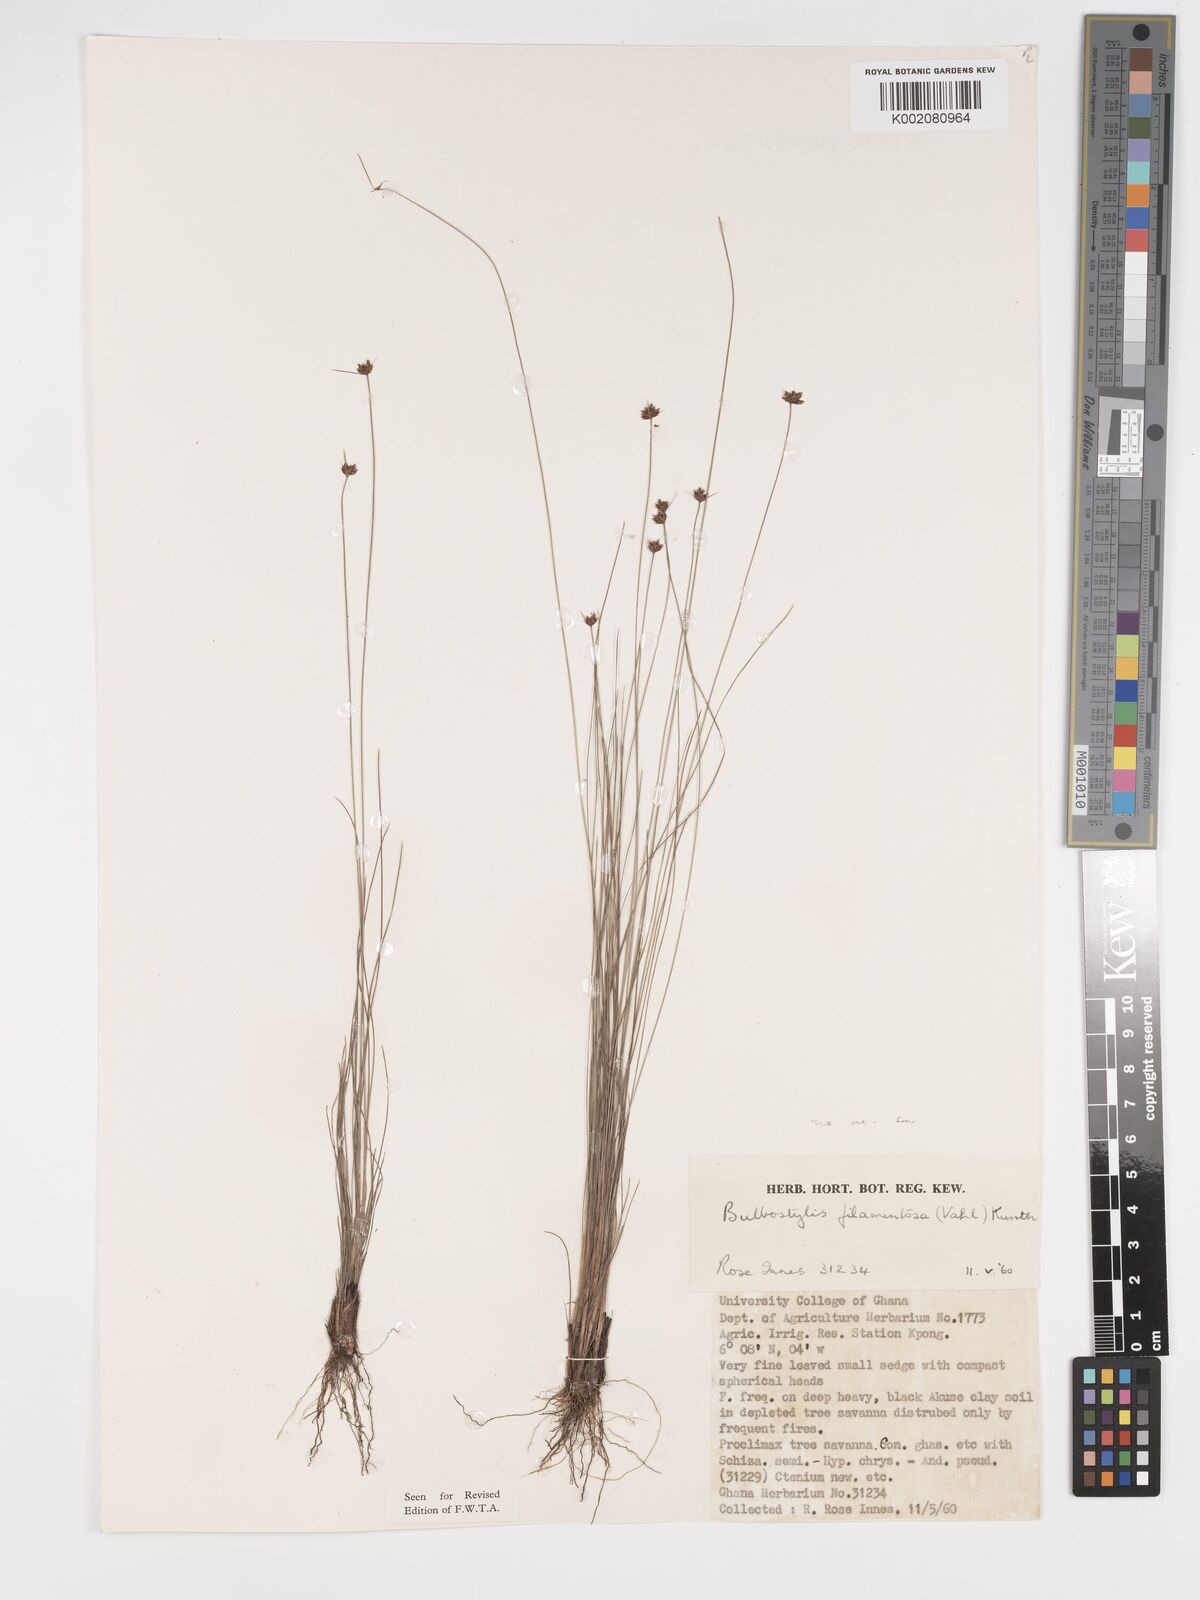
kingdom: Plantae
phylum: Tracheophyta
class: Liliopsida
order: Poales
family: Cyperaceae
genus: Bulbostylis
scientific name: Bulbostylis filamentosa
